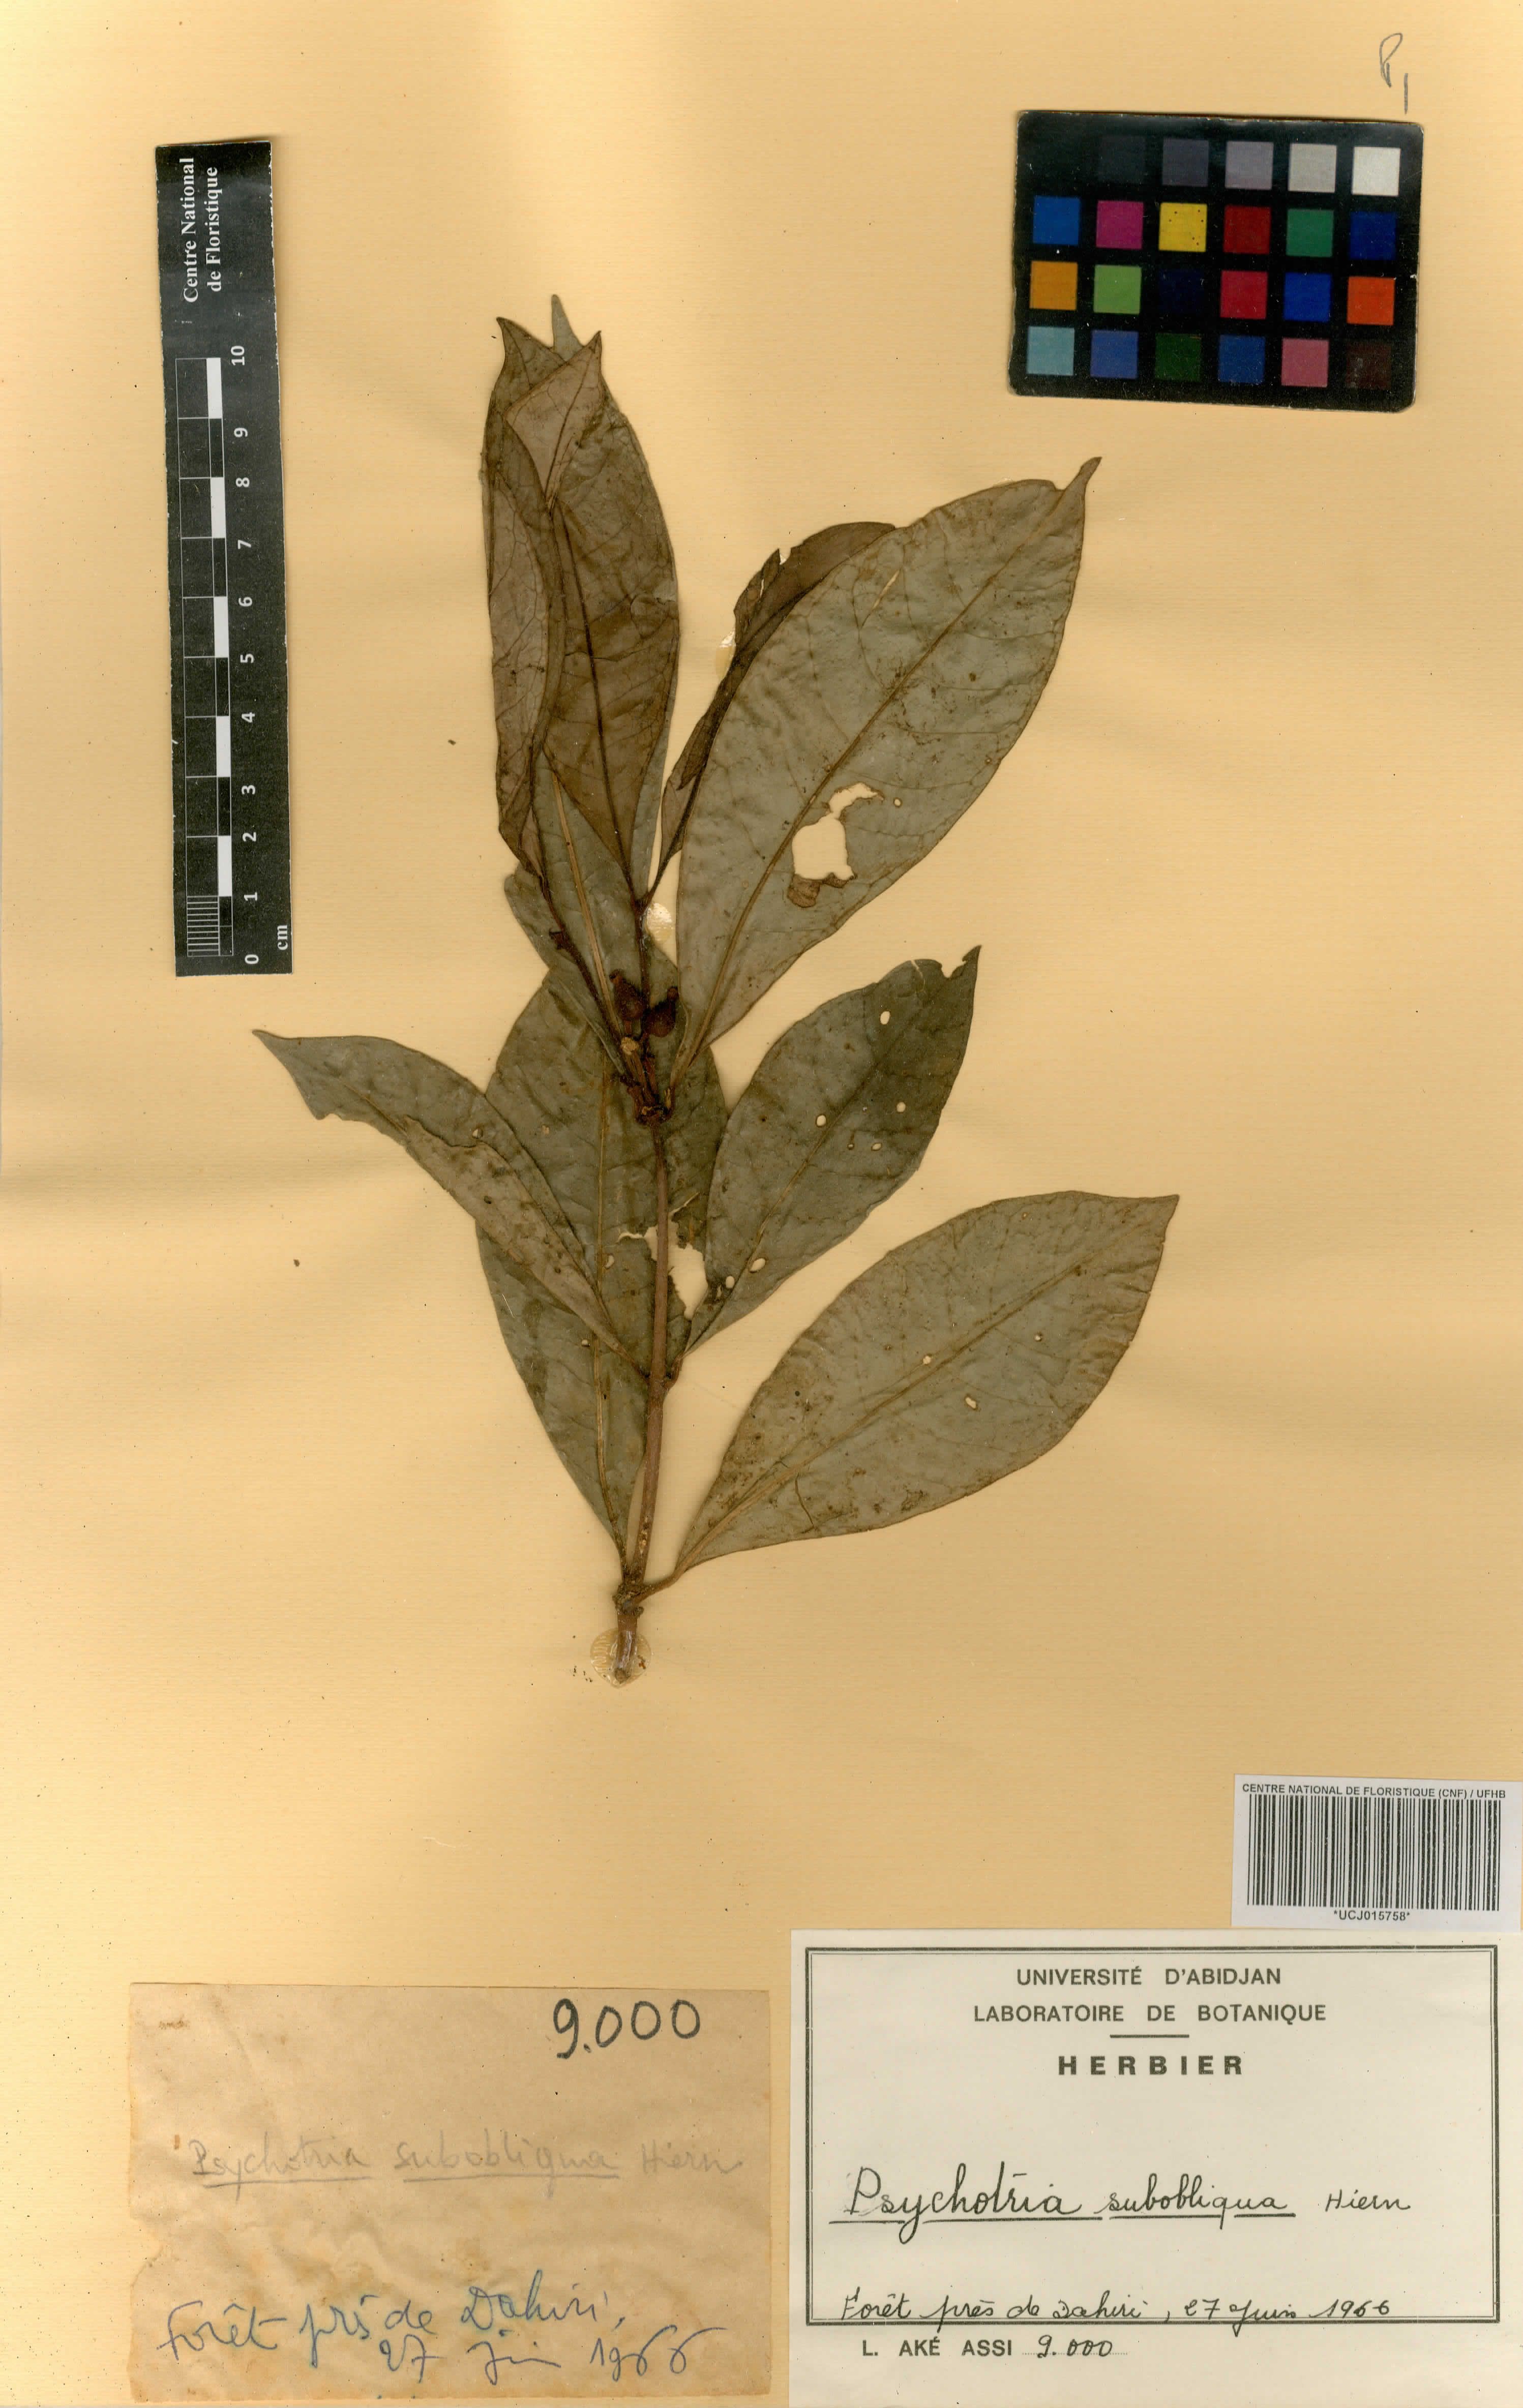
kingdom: Plantae
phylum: Tracheophyta
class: Magnoliopsida
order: Gentianales
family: Rubiaceae
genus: Psychotria
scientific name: Psychotria subobliqua
